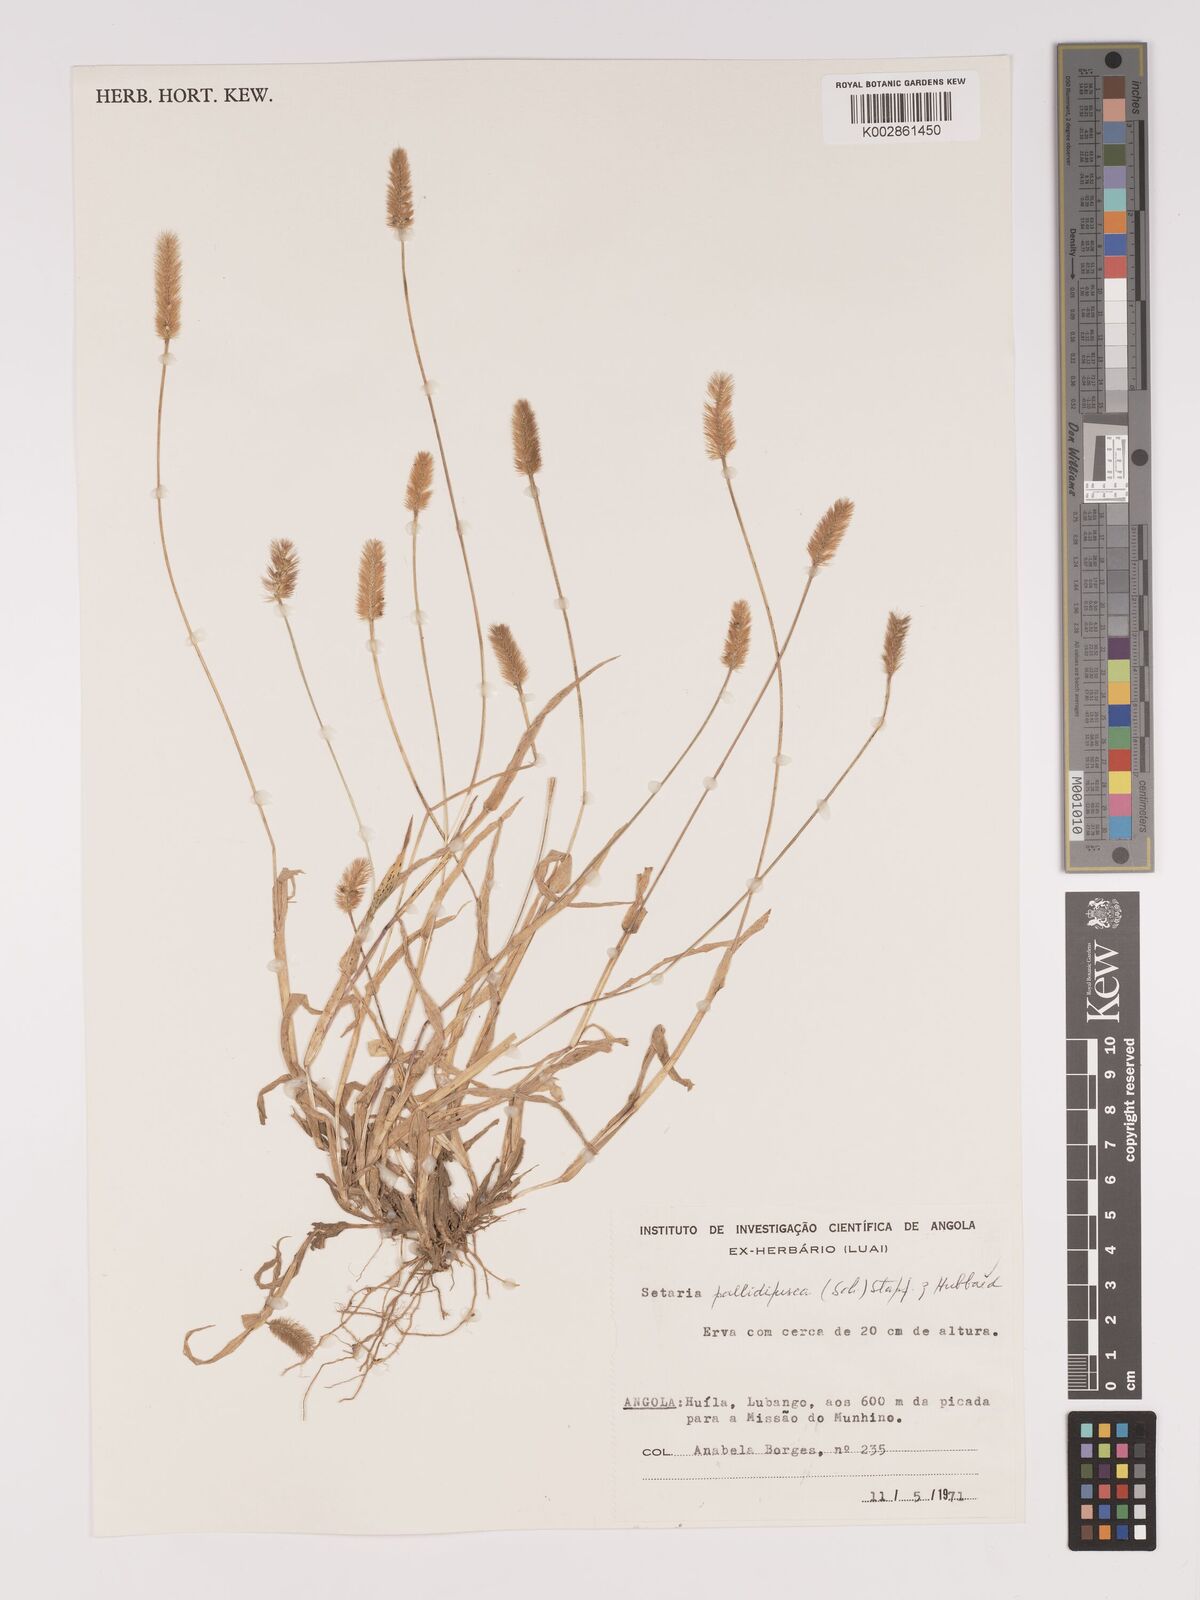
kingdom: Plantae
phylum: Tracheophyta
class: Liliopsida
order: Poales
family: Poaceae
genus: Setaria
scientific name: Setaria pumila
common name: Yellow bristle-grass
